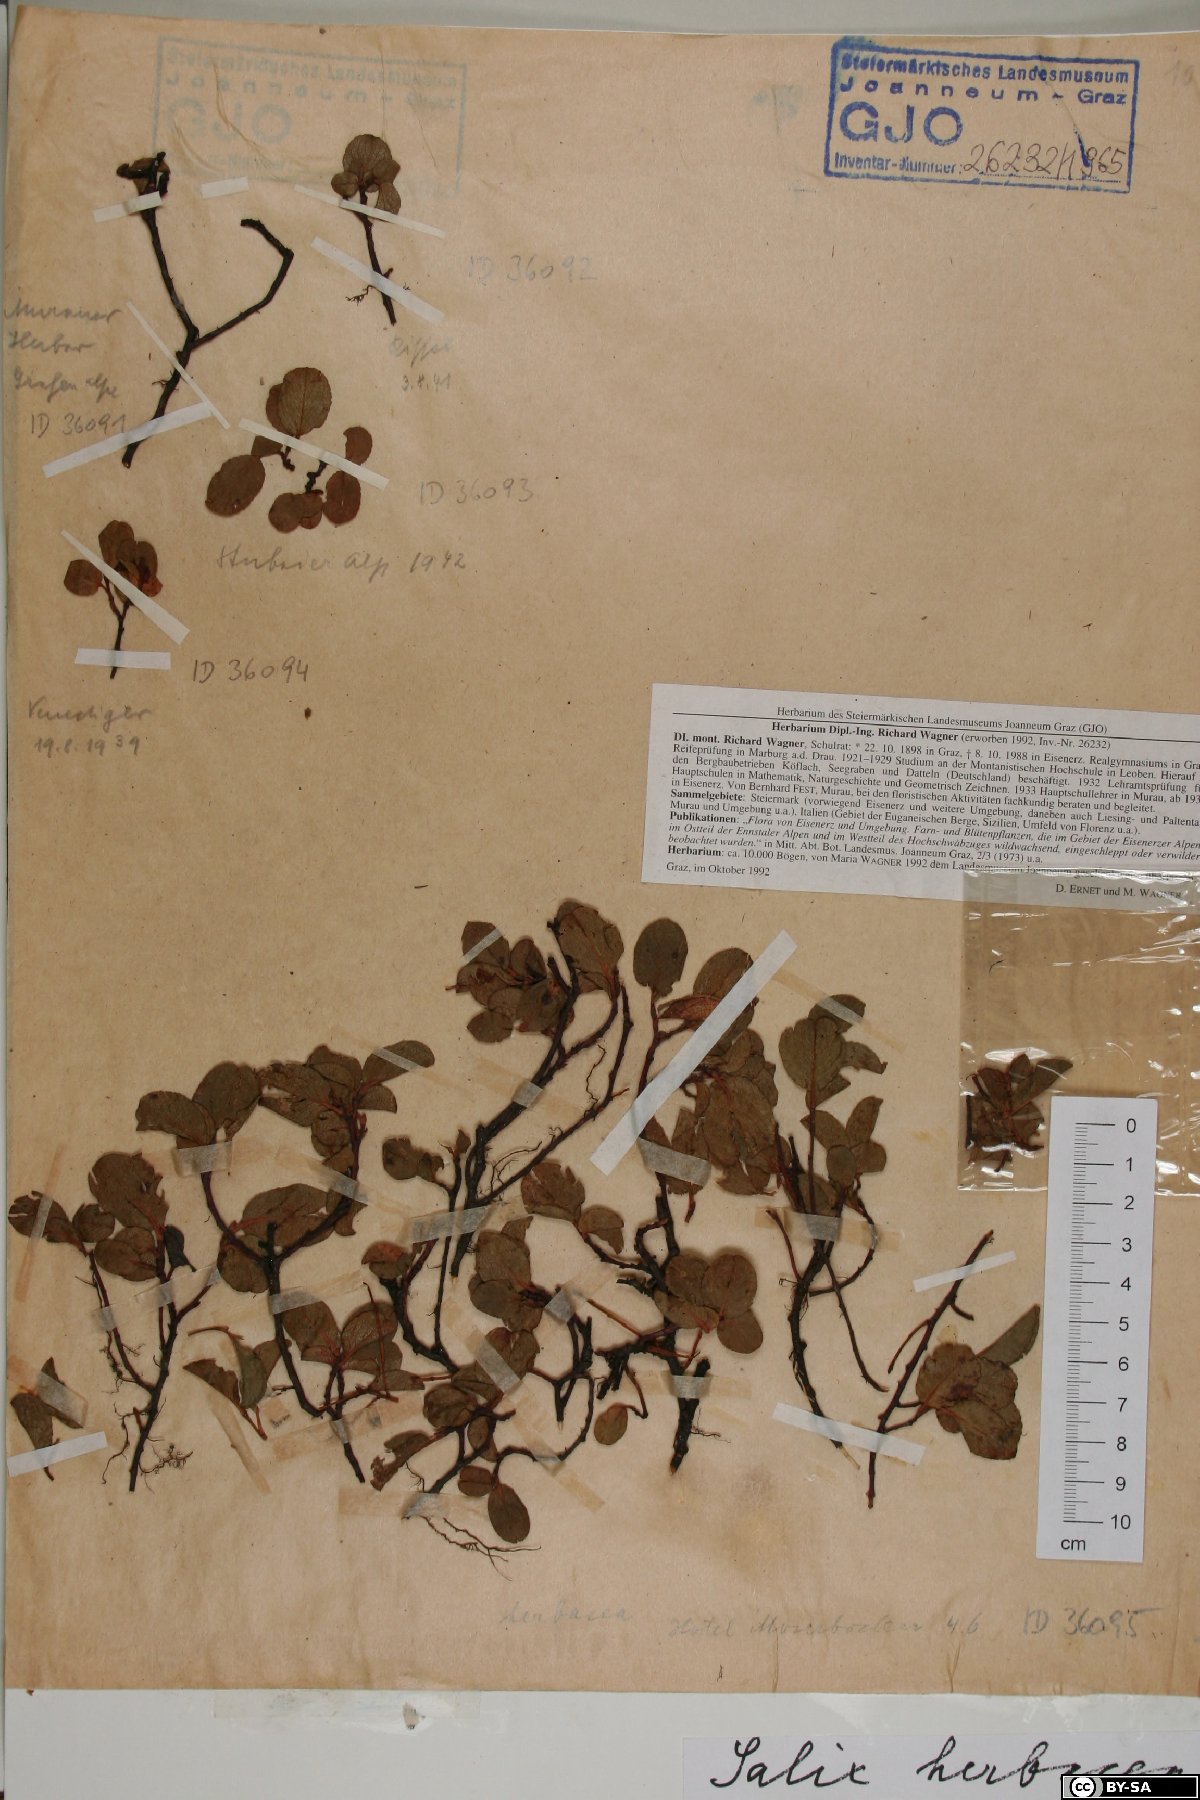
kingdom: Plantae
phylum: Tracheophyta
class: Magnoliopsida
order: Malpighiales
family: Salicaceae
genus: Salix
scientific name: Salix herbacea
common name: Dwarf willow
